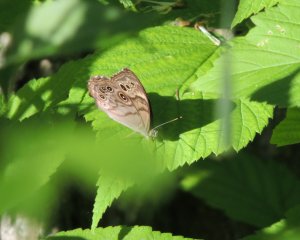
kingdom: Animalia
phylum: Arthropoda
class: Insecta
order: Lepidoptera
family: Nymphalidae
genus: Lethe
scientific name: Lethe anthedon
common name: Northern Pearly-Eye
